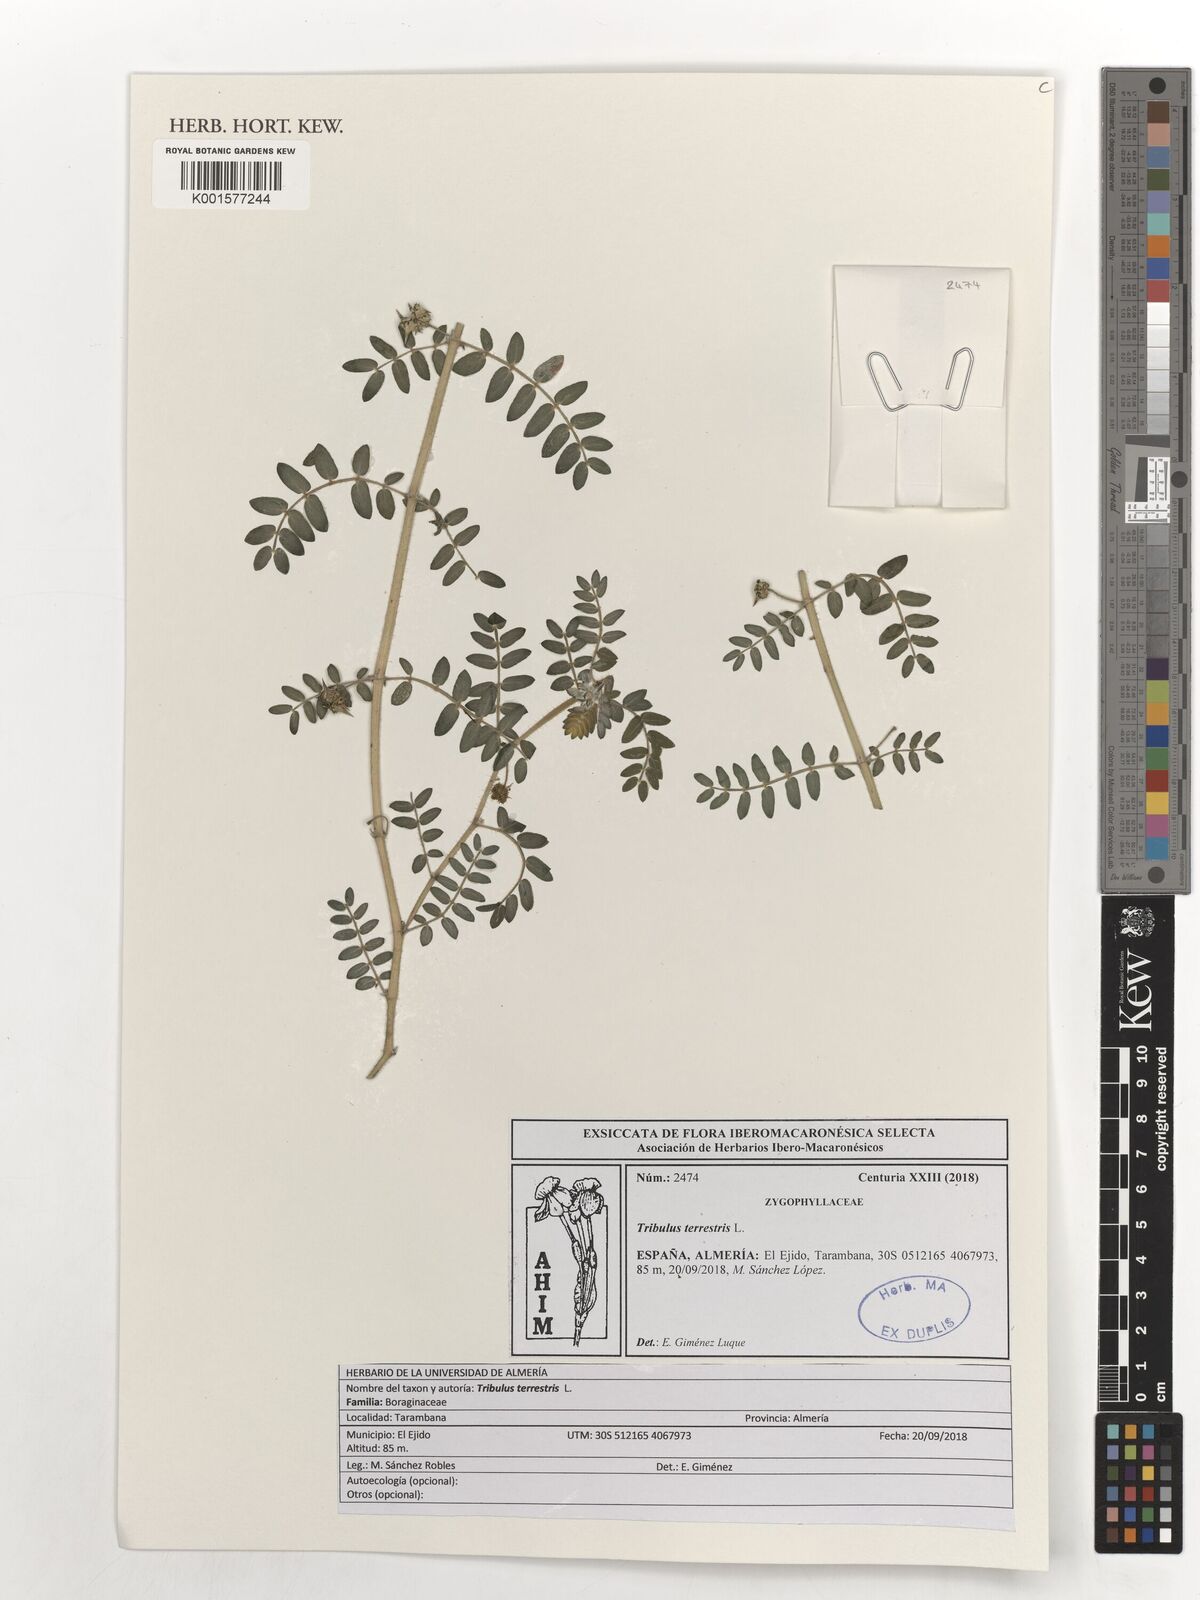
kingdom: Plantae
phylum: Tracheophyta
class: Magnoliopsida
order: Zygophyllales
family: Zygophyllaceae
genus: Tribulus
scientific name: Tribulus terrestris
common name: Puncturevine
